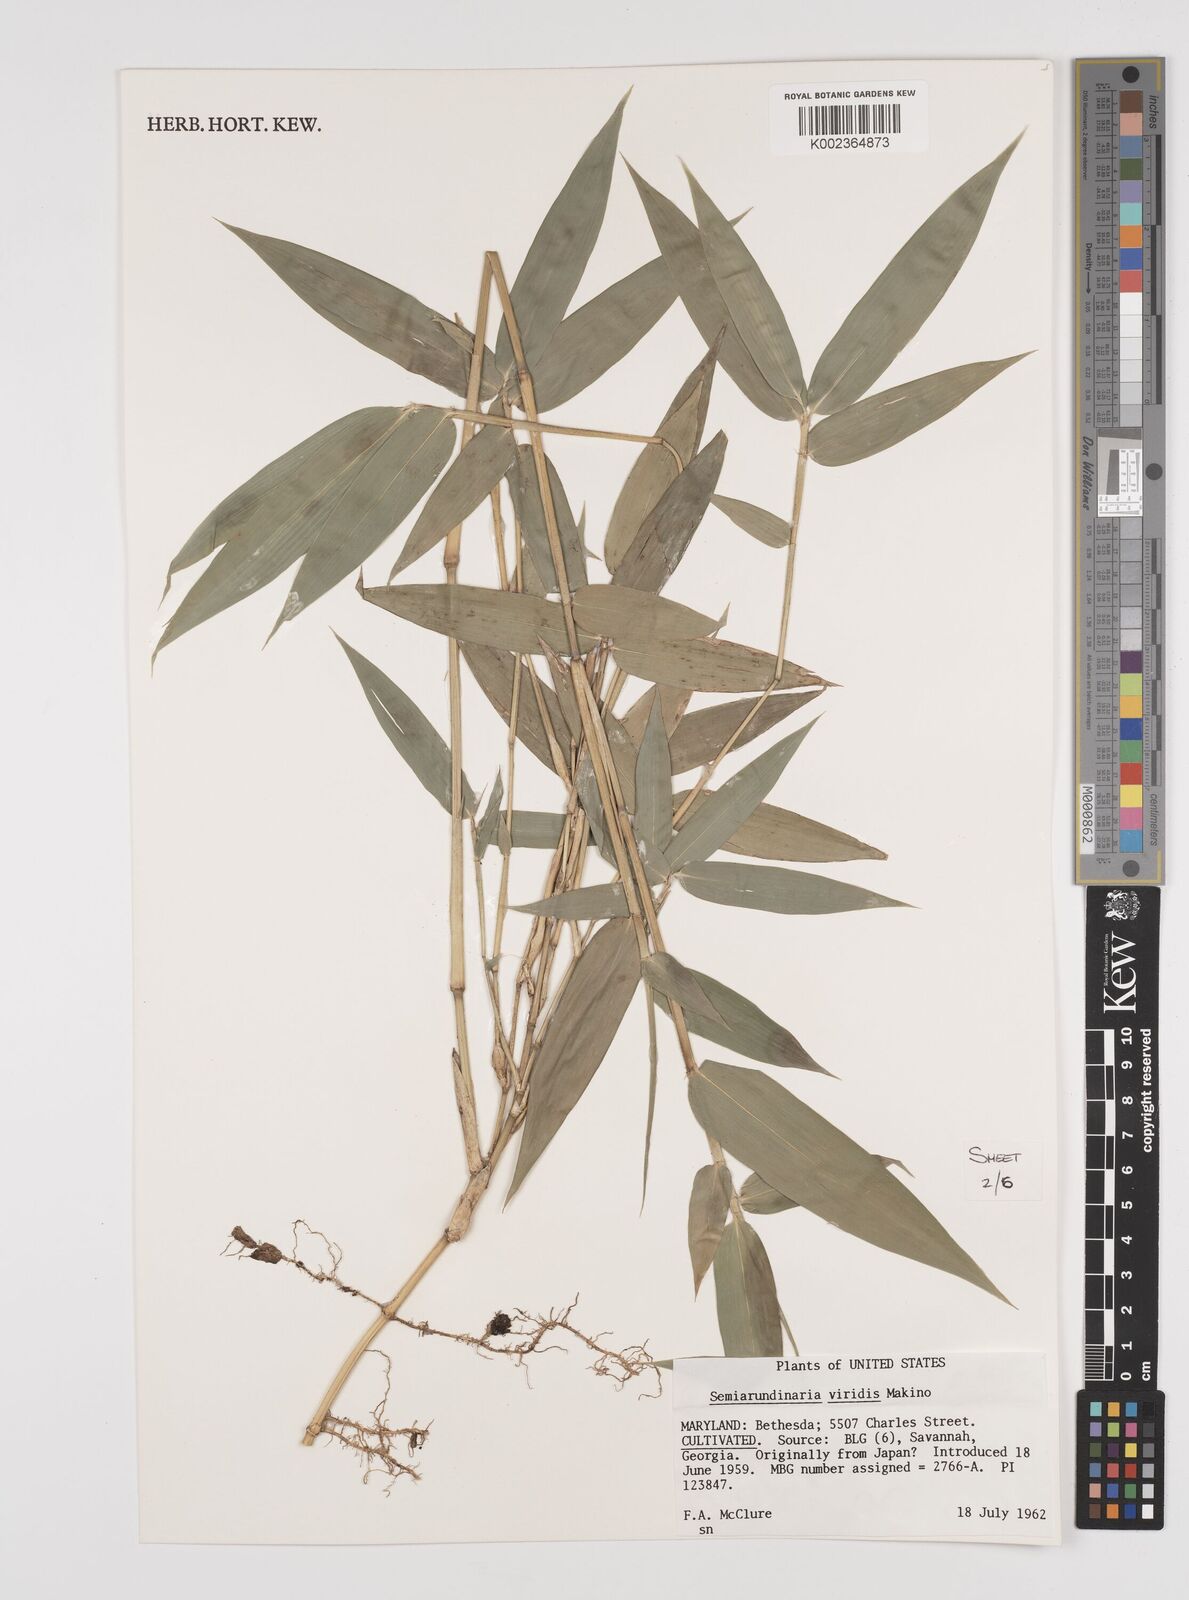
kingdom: Plantae
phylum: Tracheophyta
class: Liliopsida
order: Poales
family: Poaceae
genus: Semiarundinaria
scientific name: Semiarundinaria fastuosa
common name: Narihira bamboo
